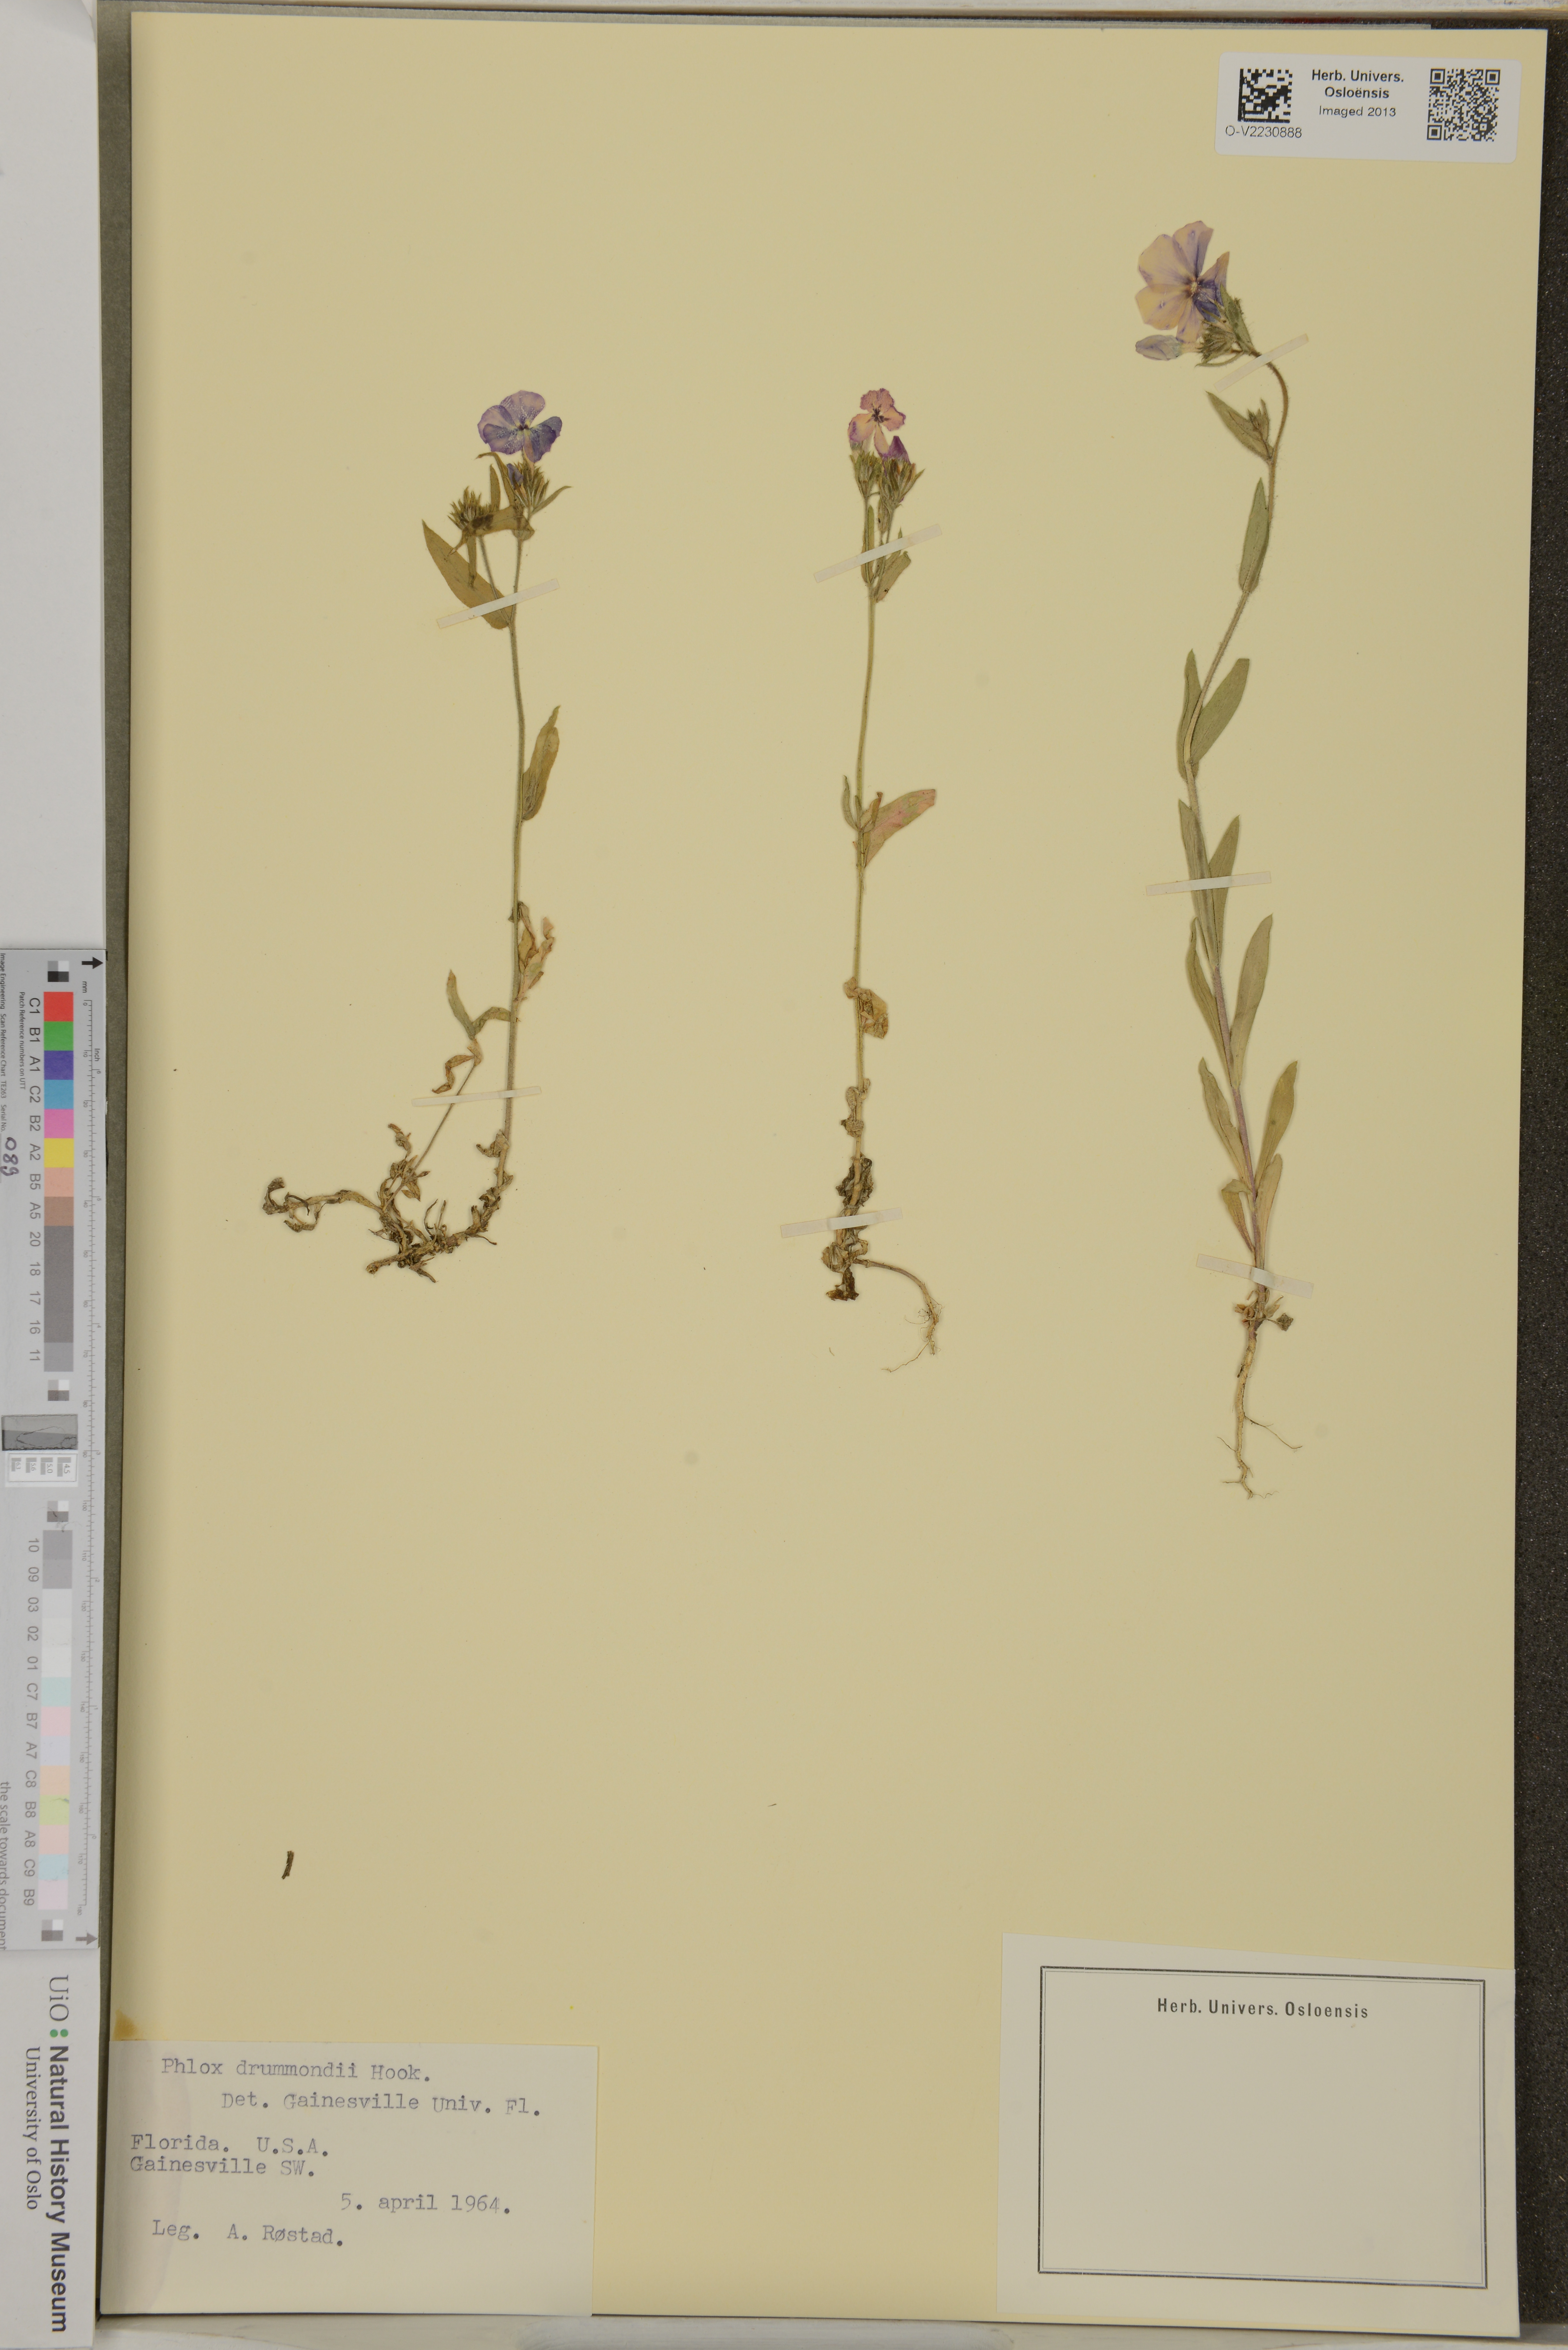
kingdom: Plantae
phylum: Tracheophyta
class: Magnoliopsida
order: Ericales
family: Polemoniaceae
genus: Phlox
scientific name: Phlox drummondii
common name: Drummond's phlox
